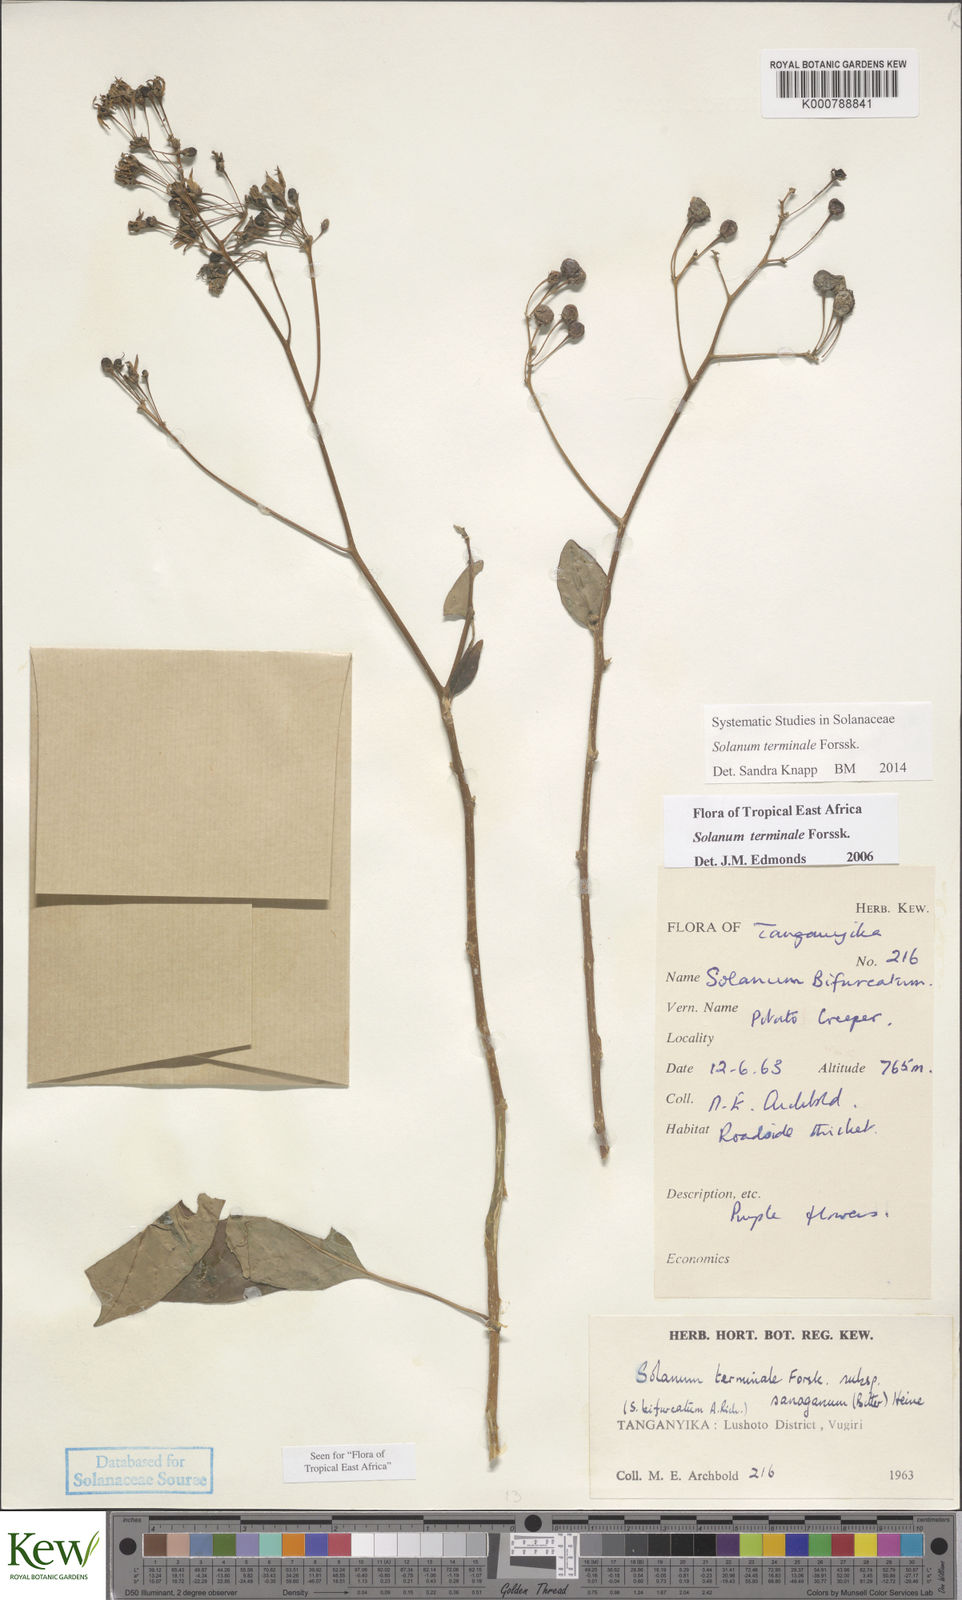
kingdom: Plantae
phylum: Tracheophyta
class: Magnoliopsida
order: Solanales
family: Solanaceae
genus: Solanum
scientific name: Solanum terminale
